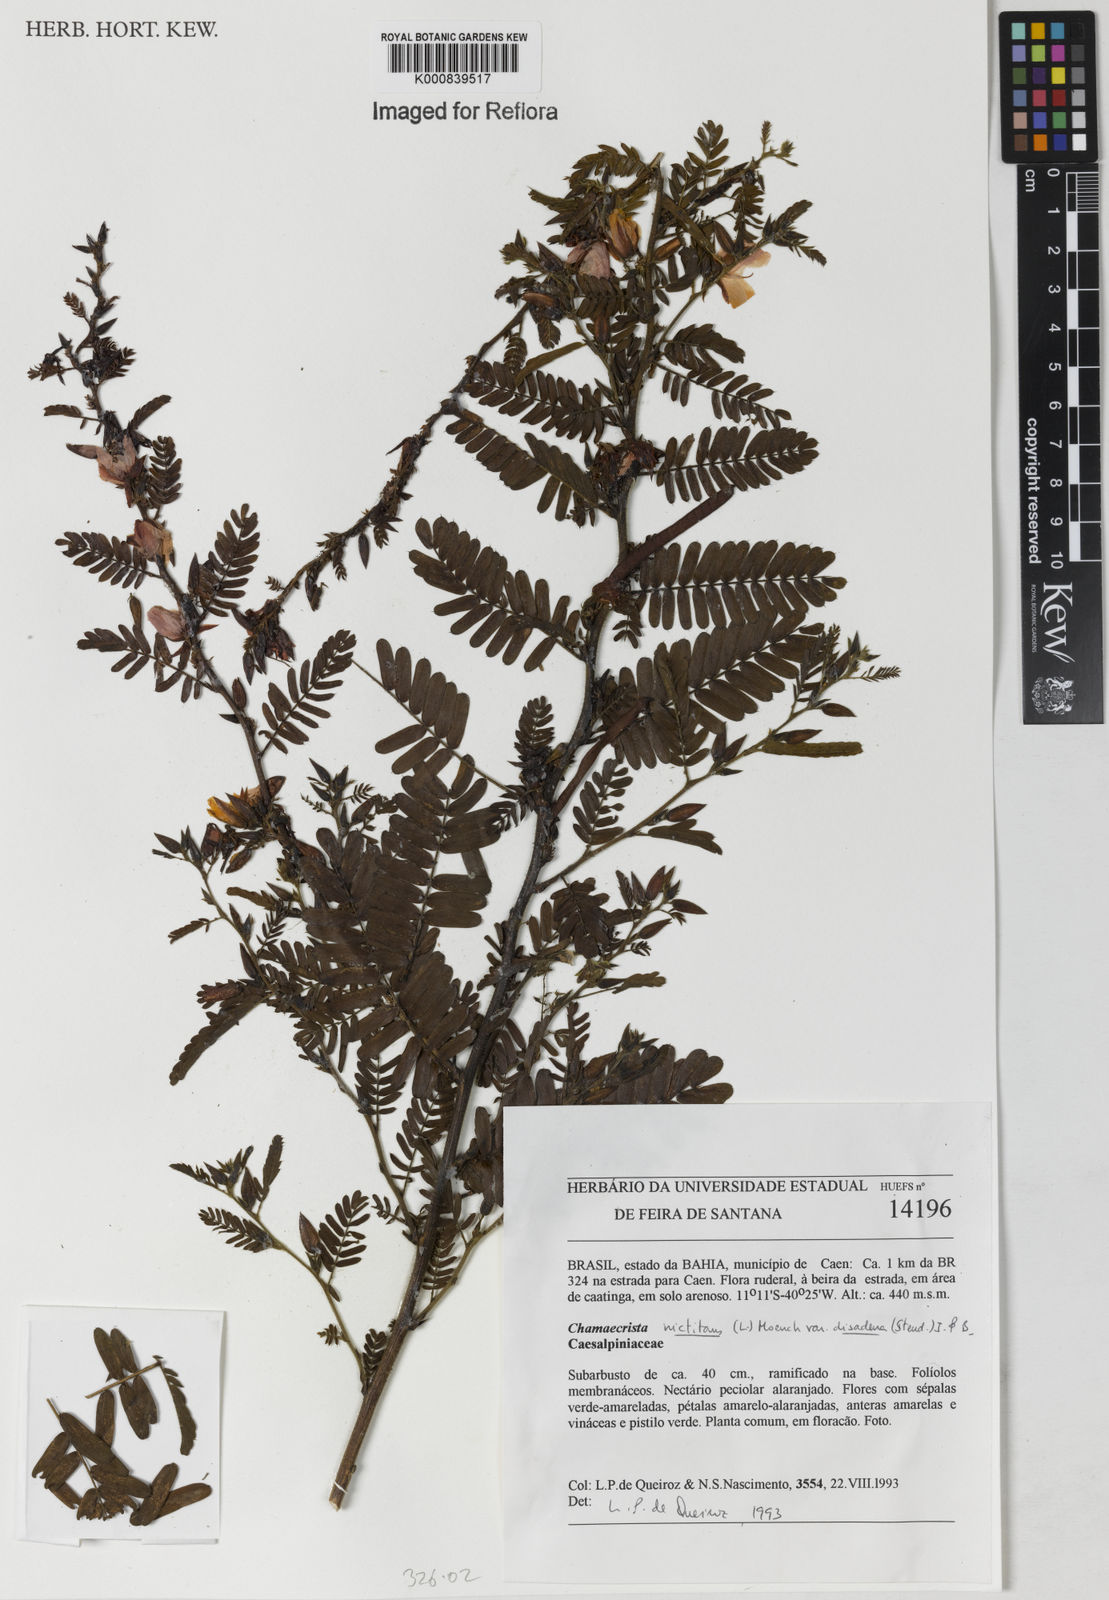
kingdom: Plantae
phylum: Tracheophyta
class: Magnoliopsida
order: Fabales
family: Fabaceae
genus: Chamaecrista
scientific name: Chamaecrista nictitans
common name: Sensitive cassia
